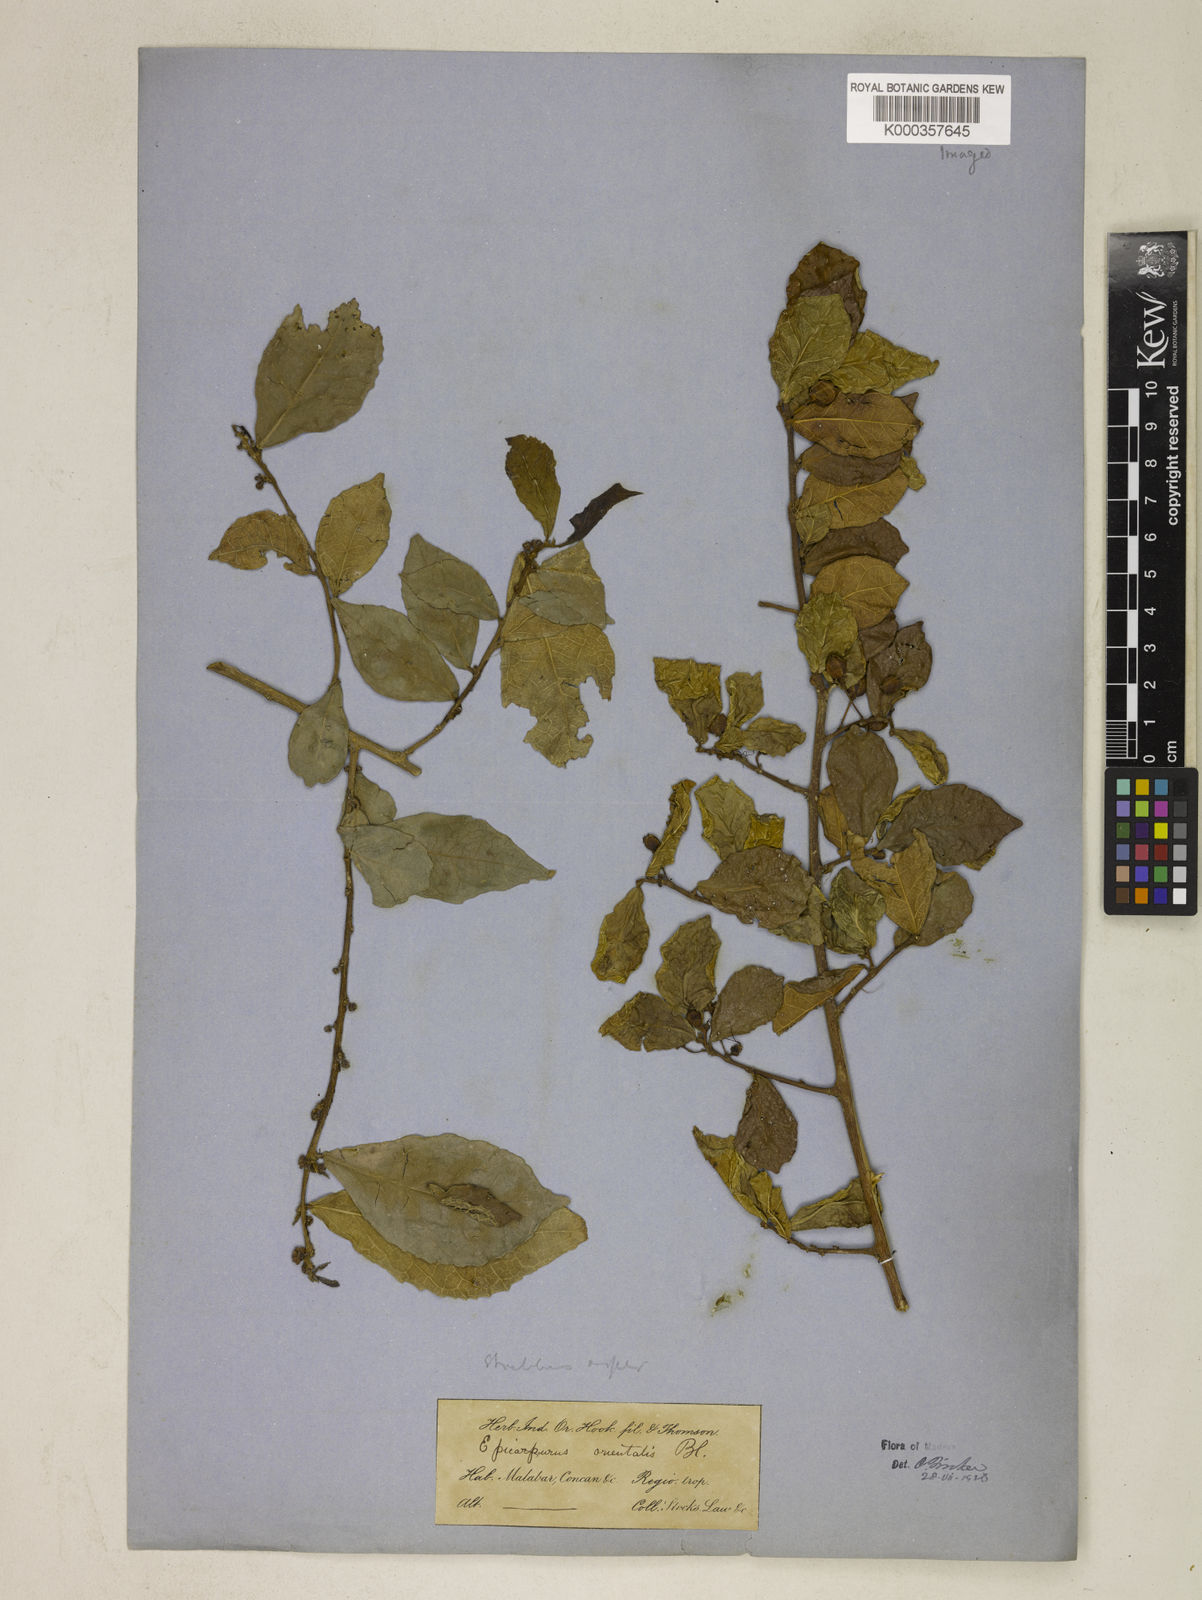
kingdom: Plantae
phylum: Tracheophyta
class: Magnoliopsida
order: Rosales
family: Moraceae
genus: Streblus
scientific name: Streblus asper
